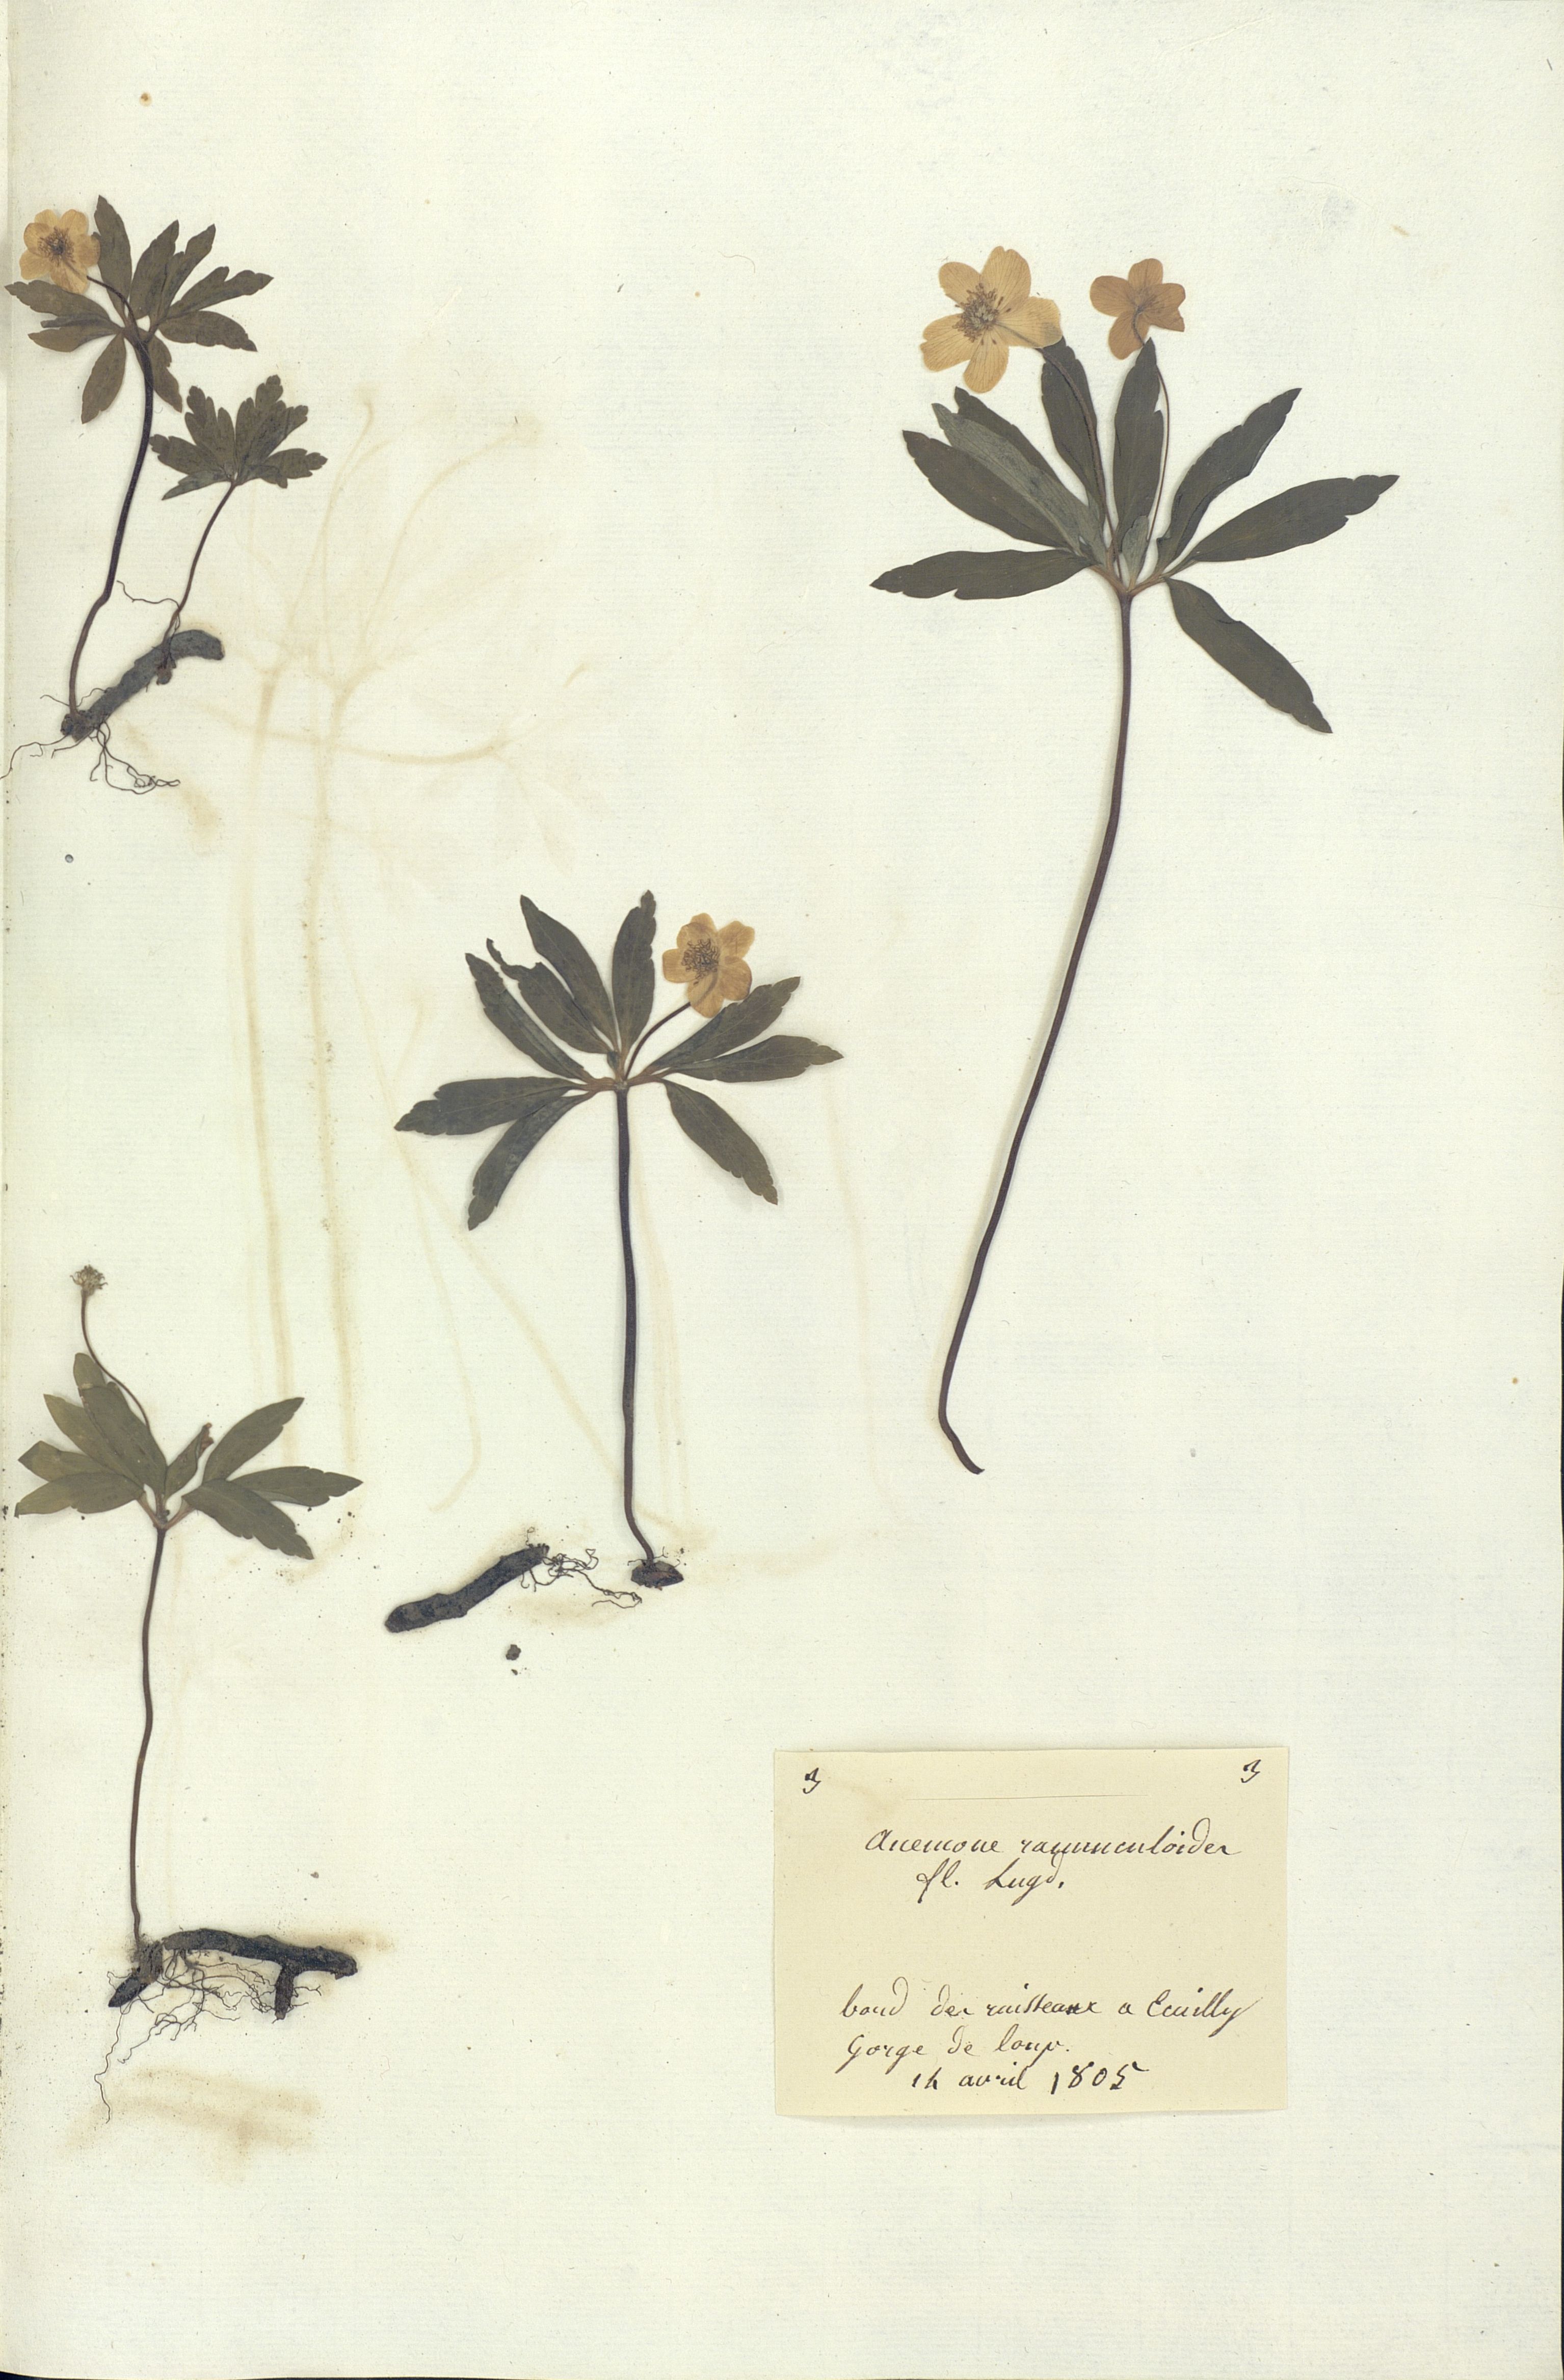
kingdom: Plantae
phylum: Tracheophyta
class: Magnoliopsida
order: Ranunculales
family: Ranunculaceae
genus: Anemone
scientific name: Anemone ranunculoides
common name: Yellow anemone
